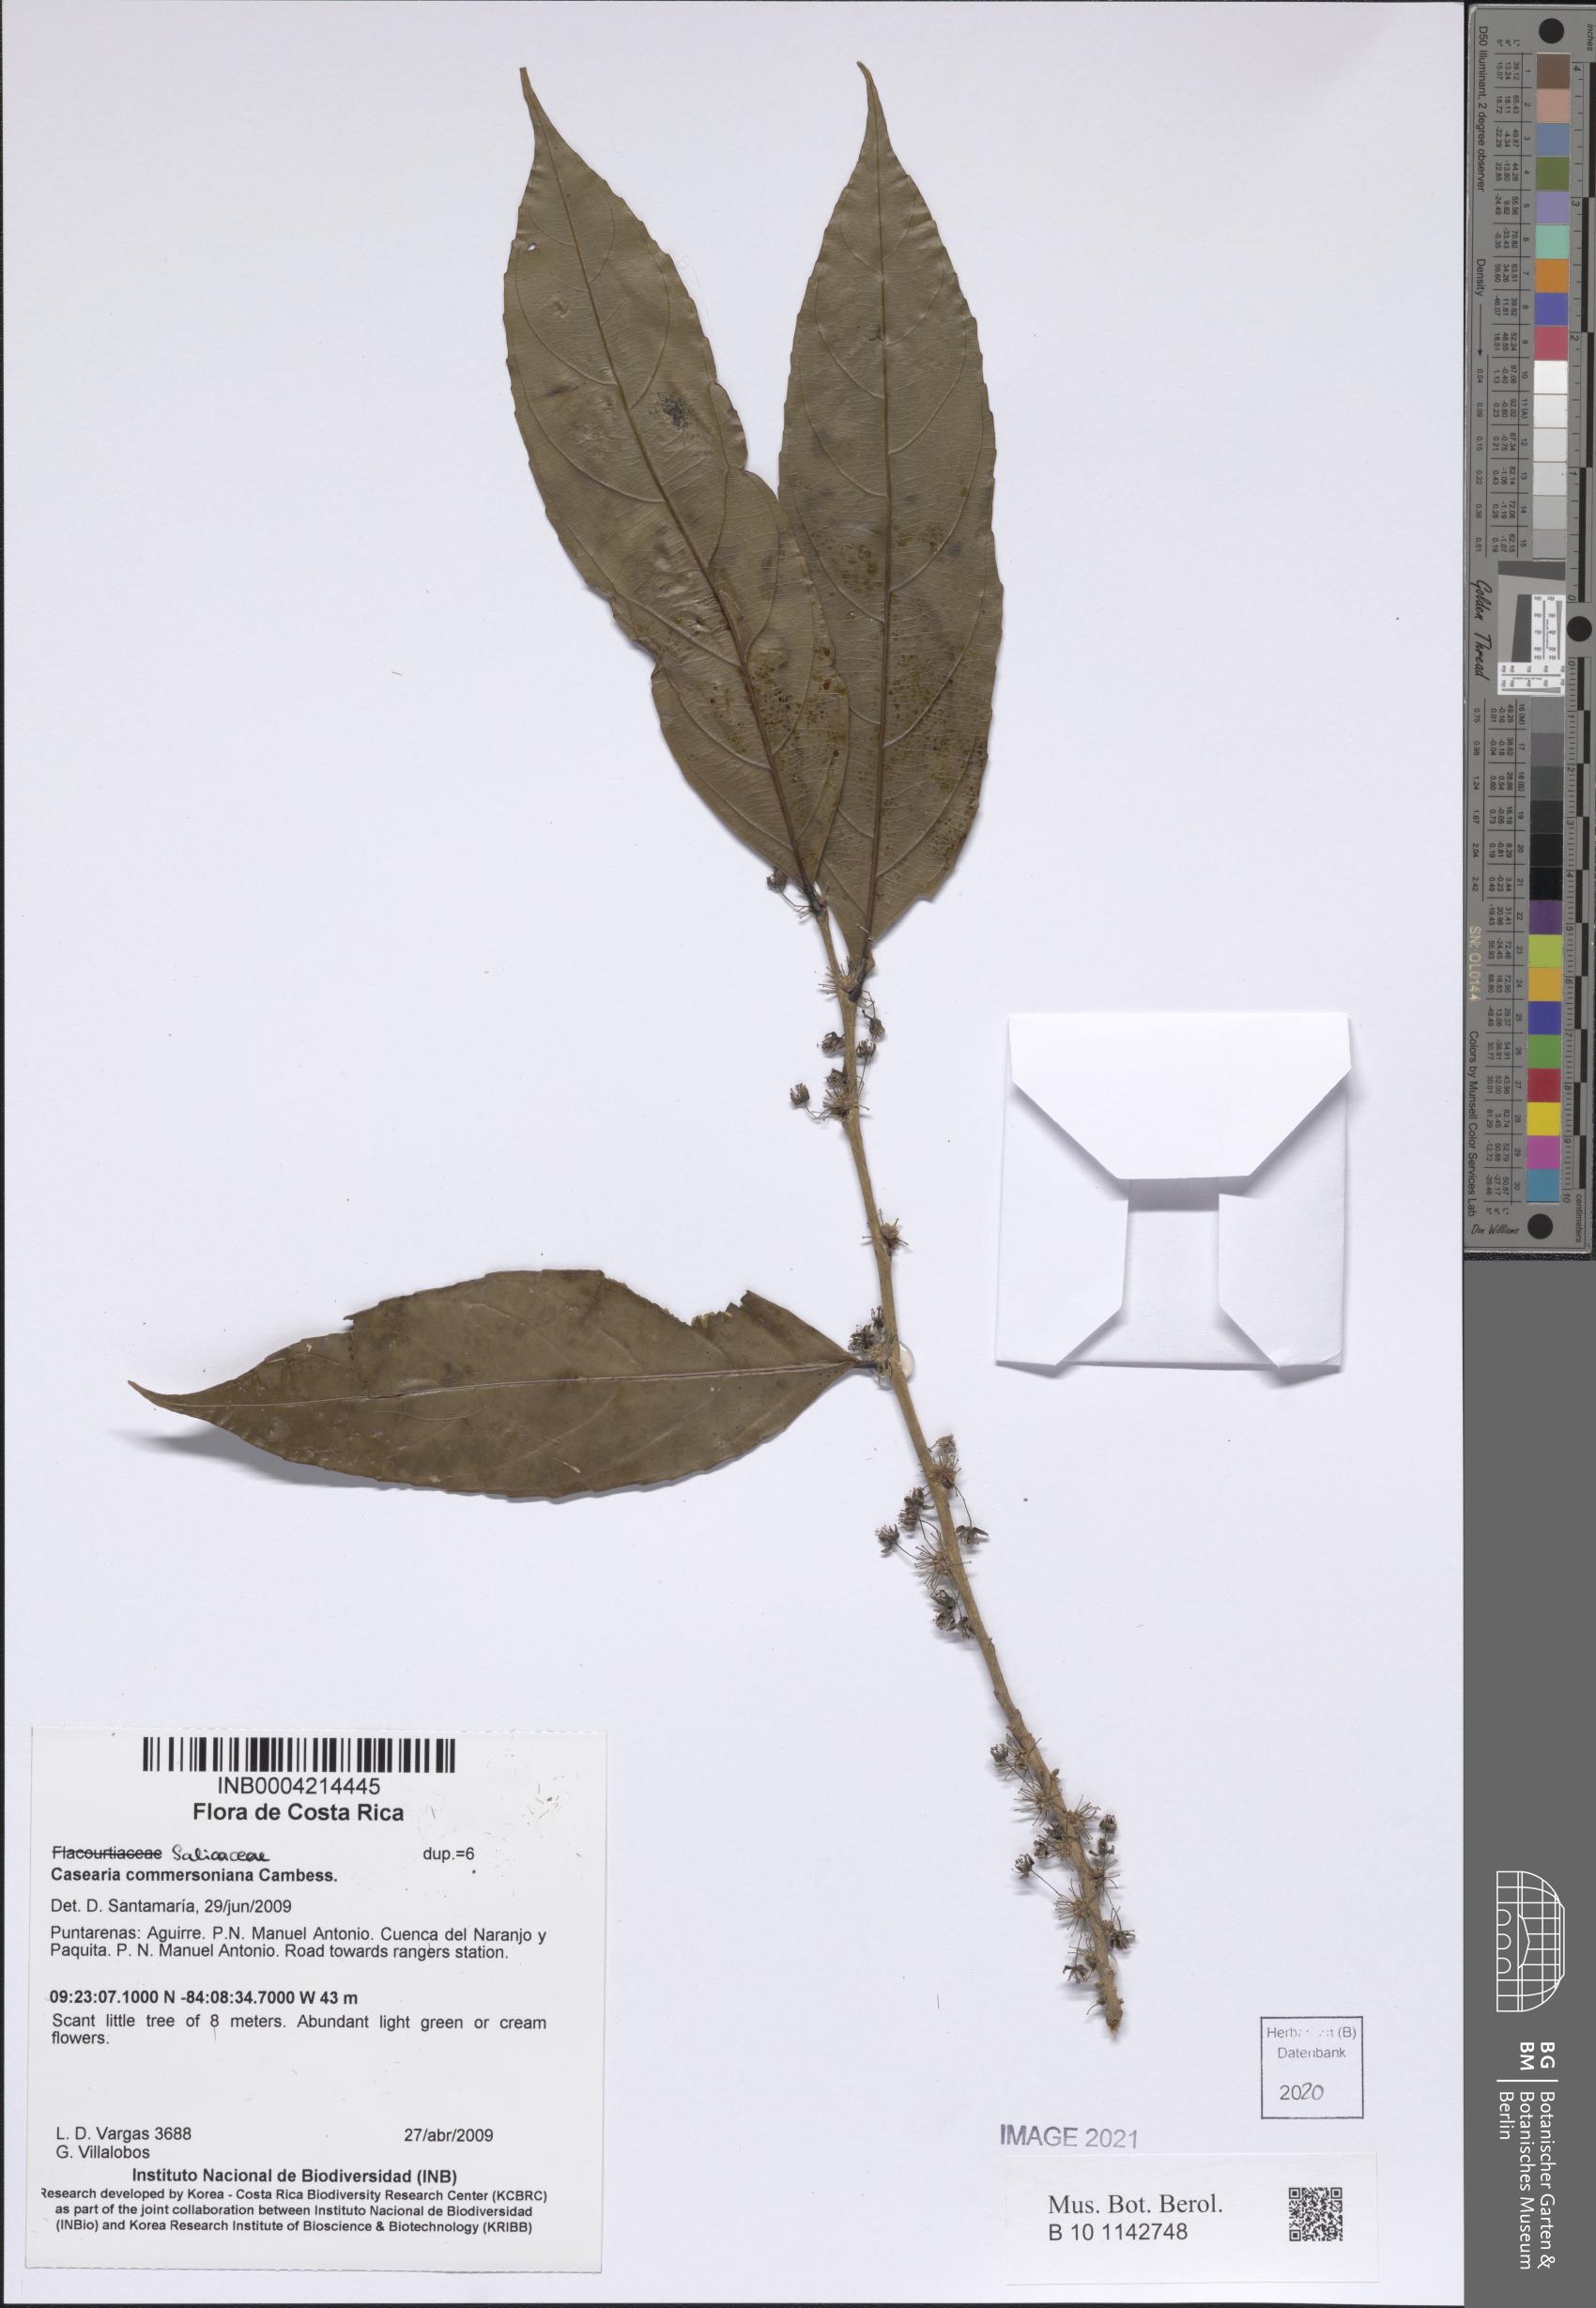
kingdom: Plantae
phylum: Tracheophyta
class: Magnoliopsida
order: Malpighiales
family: Salicaceae
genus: Piparea
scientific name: Piparea dentata
